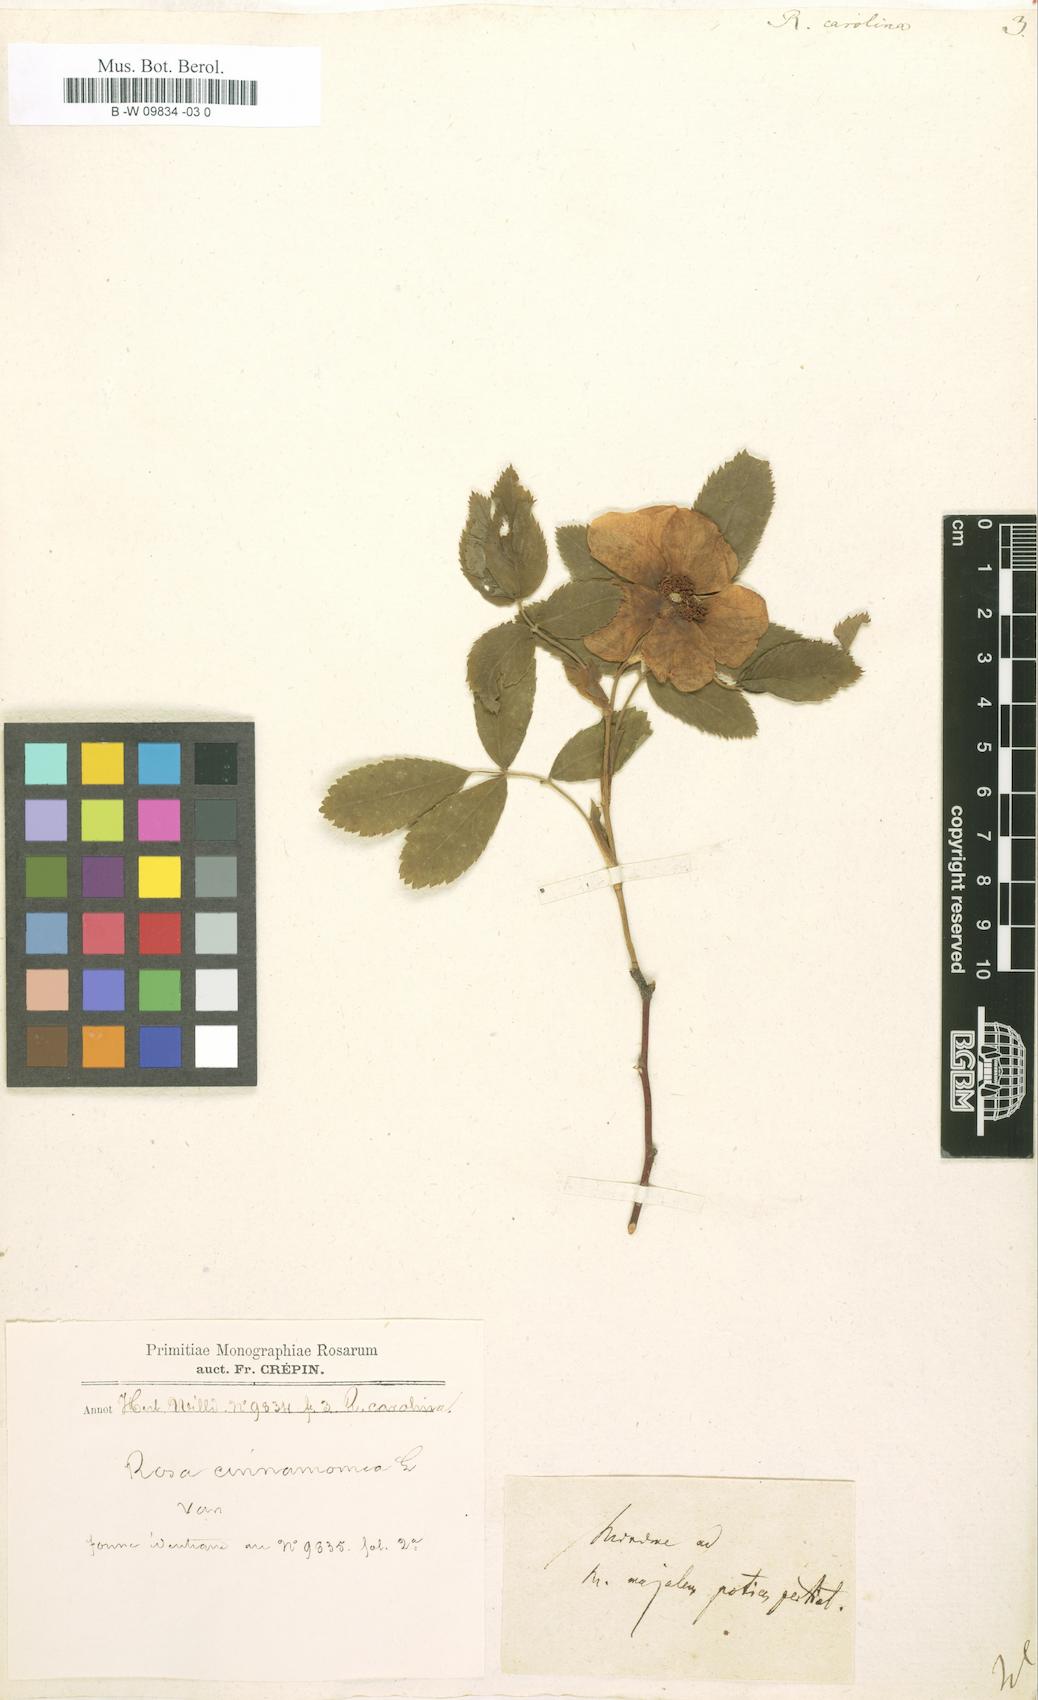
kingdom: Plantae
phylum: Tracheophyta
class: Magnoliopsida
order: Rosales
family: Rosaceae
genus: Rosa
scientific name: Rosa carolina
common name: Pasture rose
